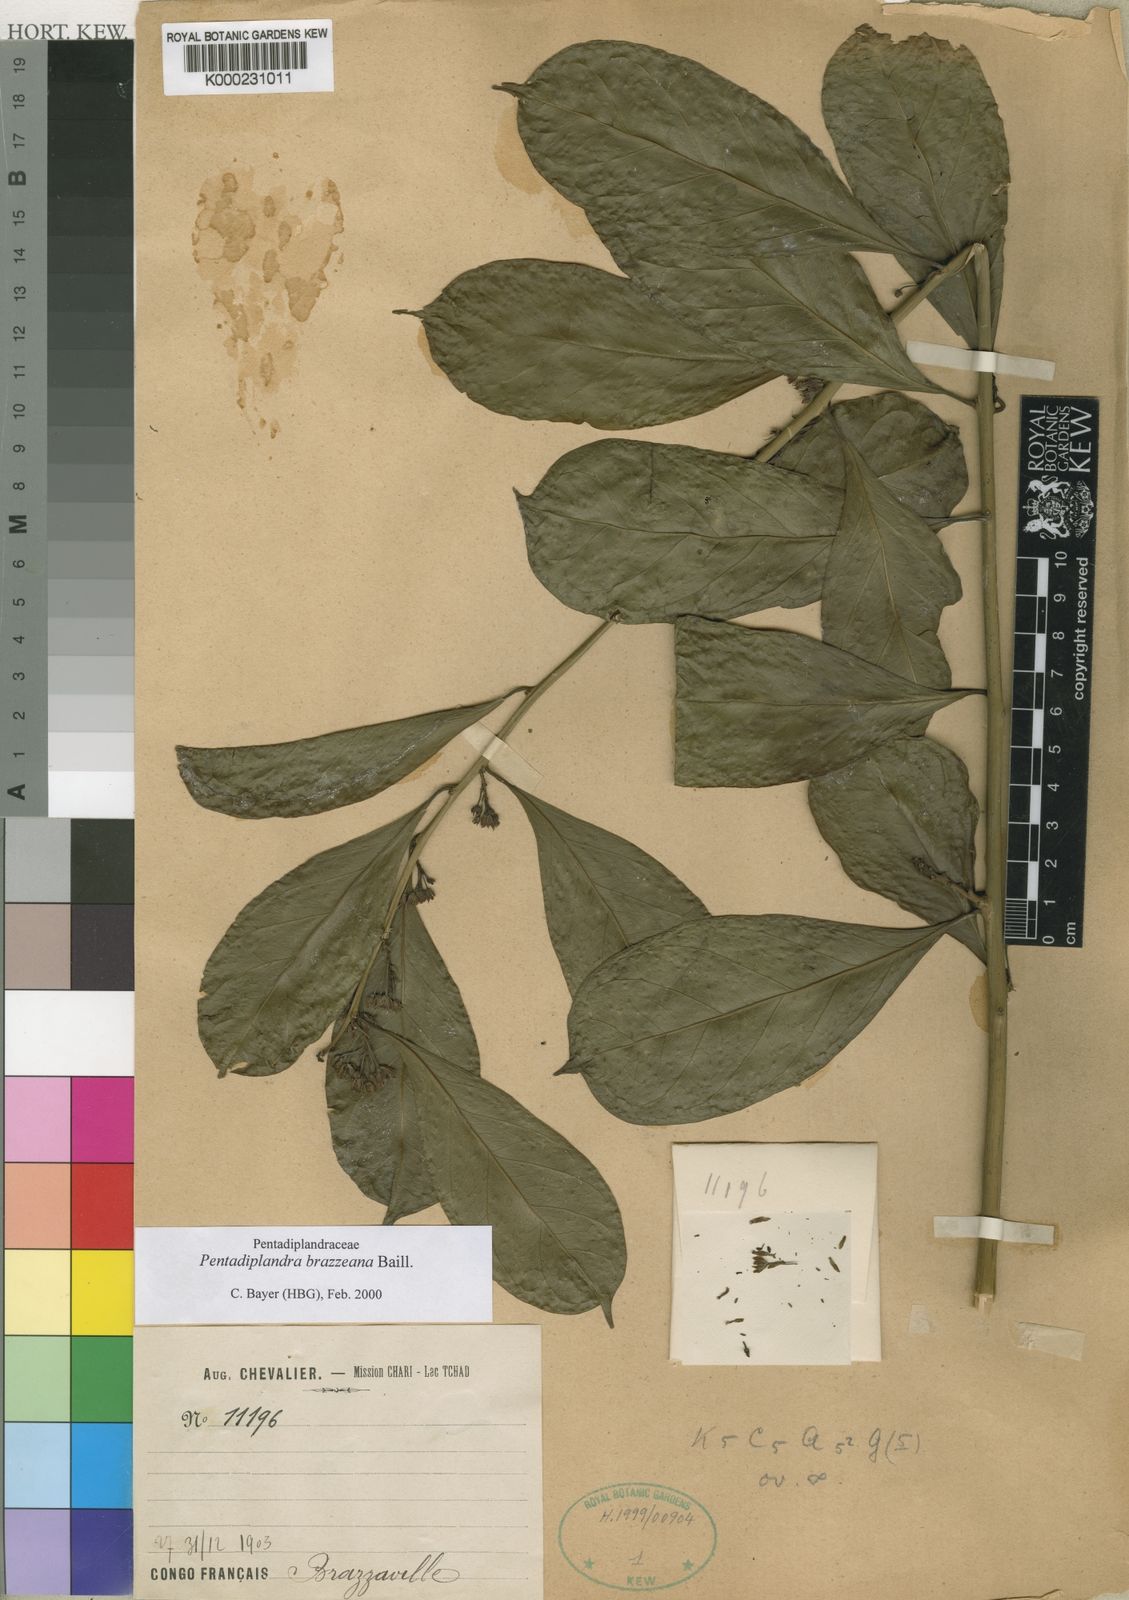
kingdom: Plantae
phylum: Tracheophyta
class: Magnoliopsida
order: Brassicales
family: Pentadiplandraceae
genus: Pentadiplandra
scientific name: Pentadiplandra brazzeana
